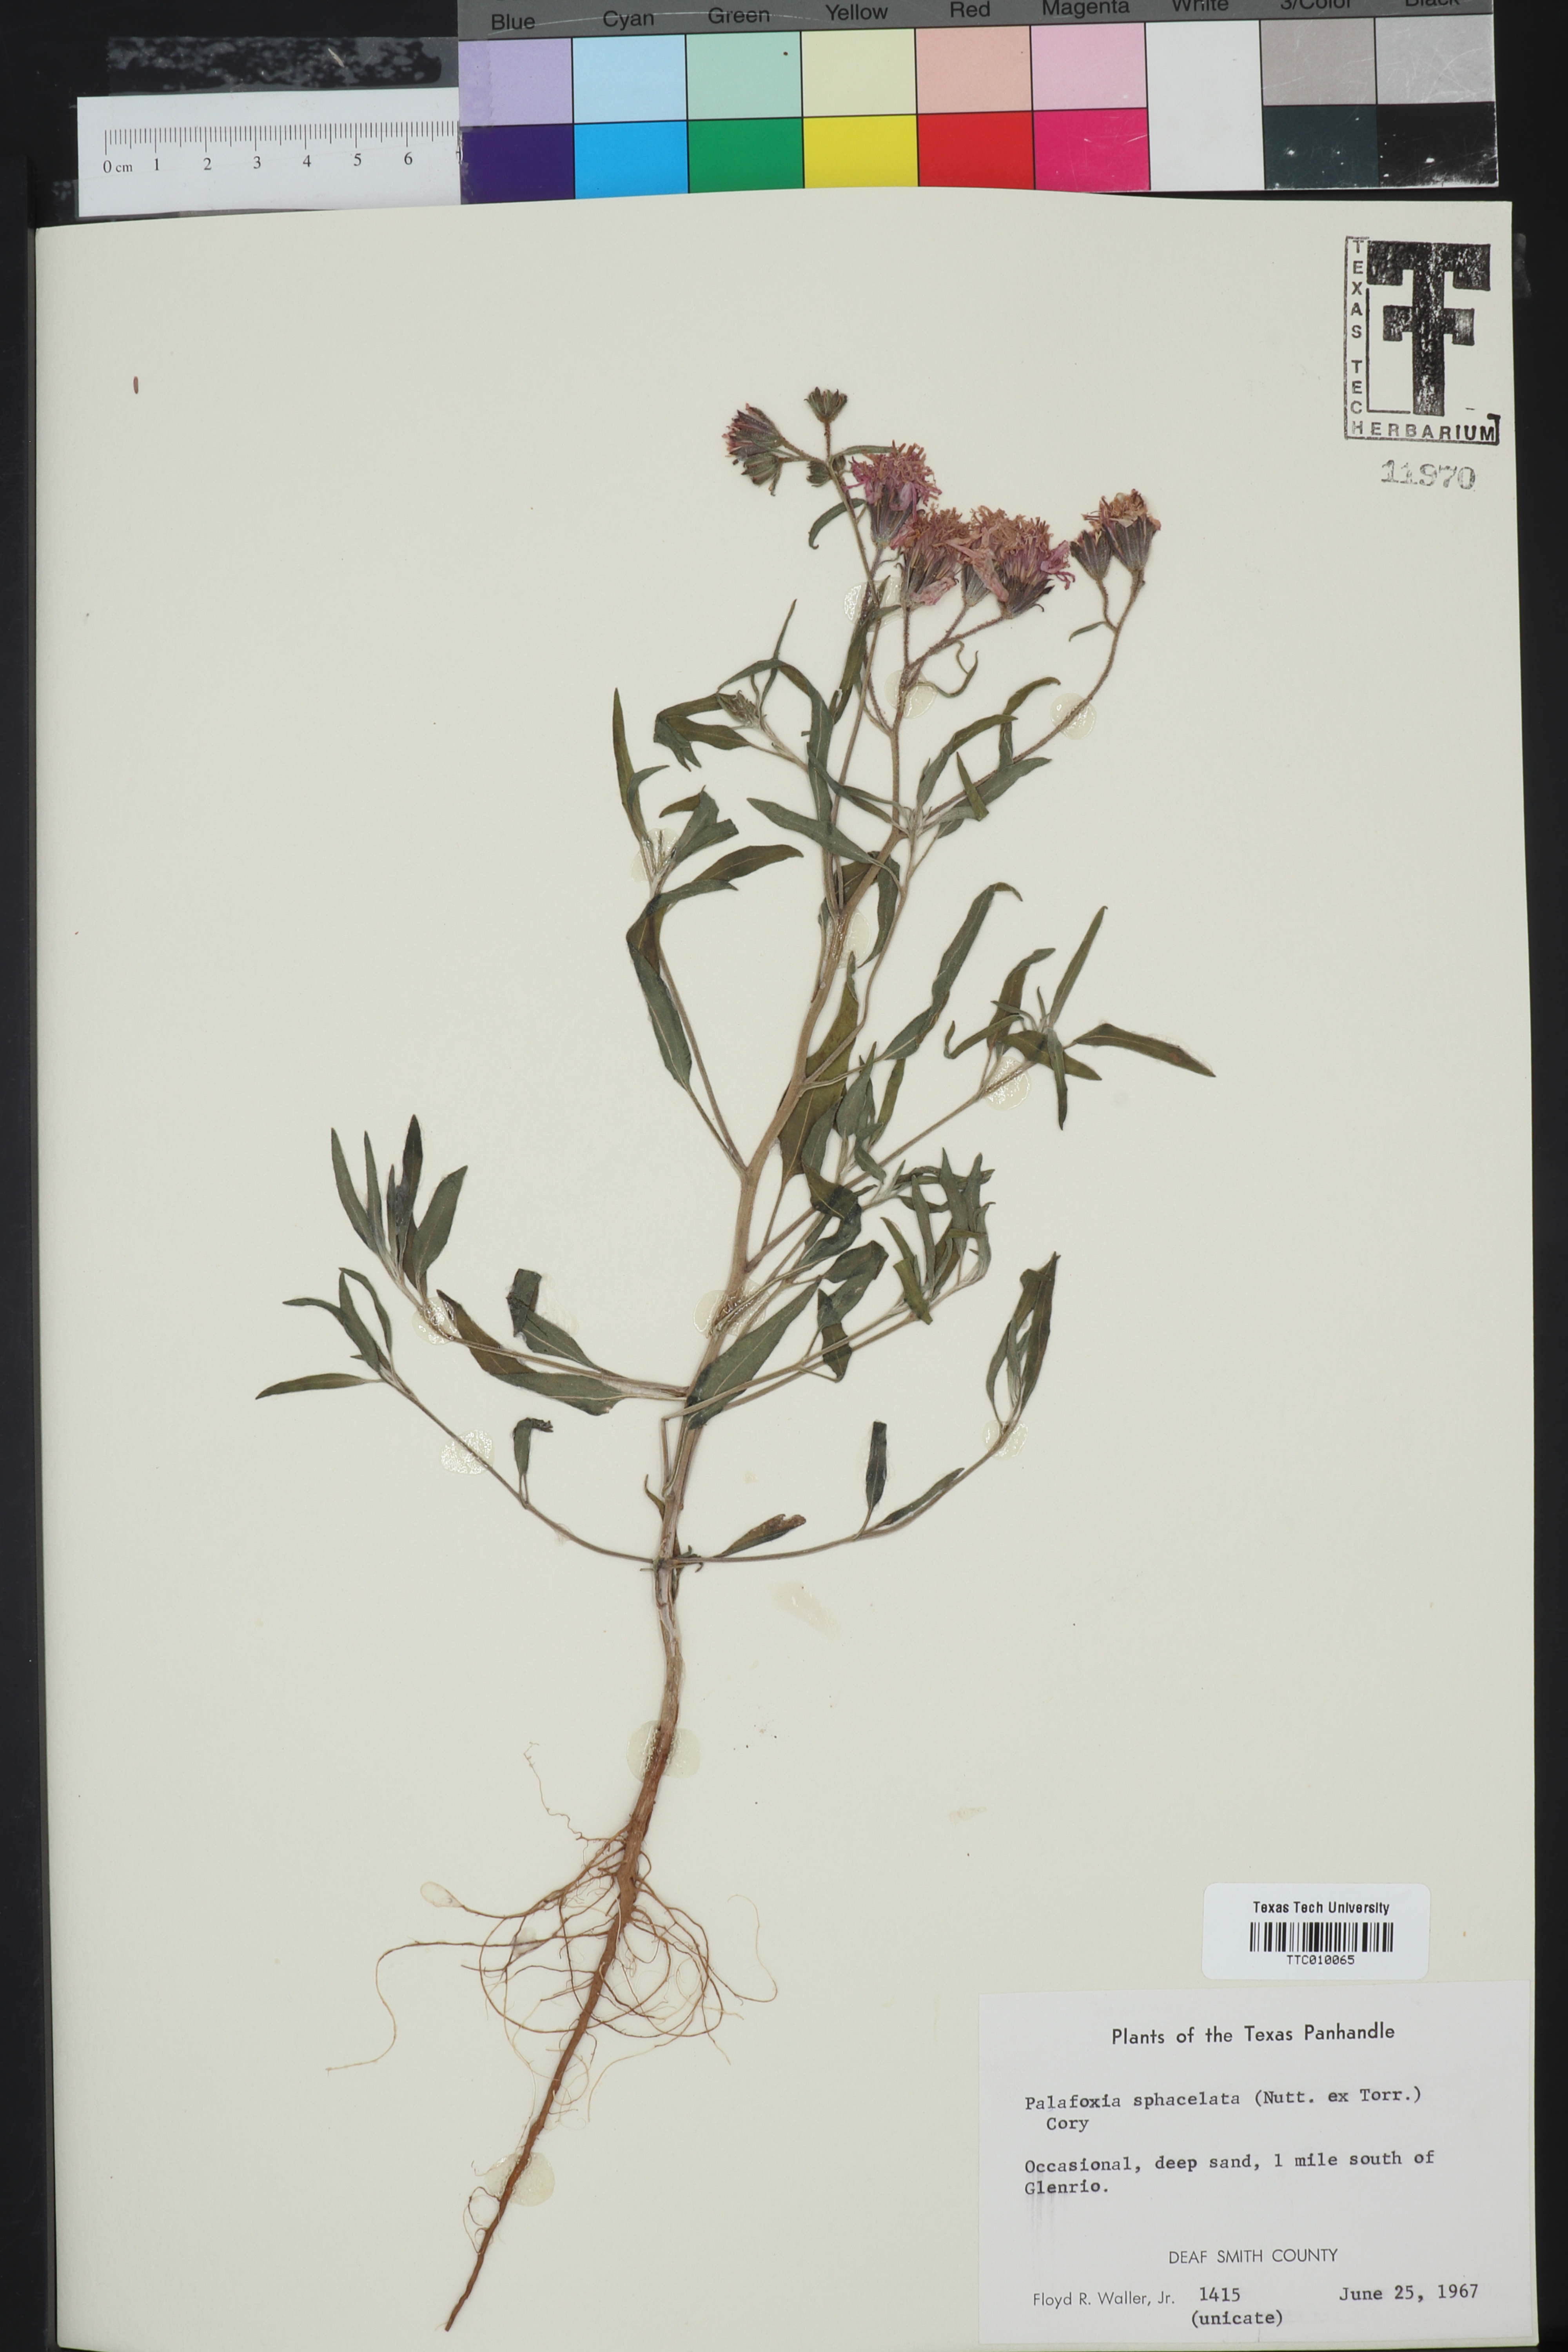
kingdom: Plantae
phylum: Tracheophyta
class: Magnoliopsida
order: Asterales
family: Asteraceae
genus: Palafoxia
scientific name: Palafoxia sphacelata
